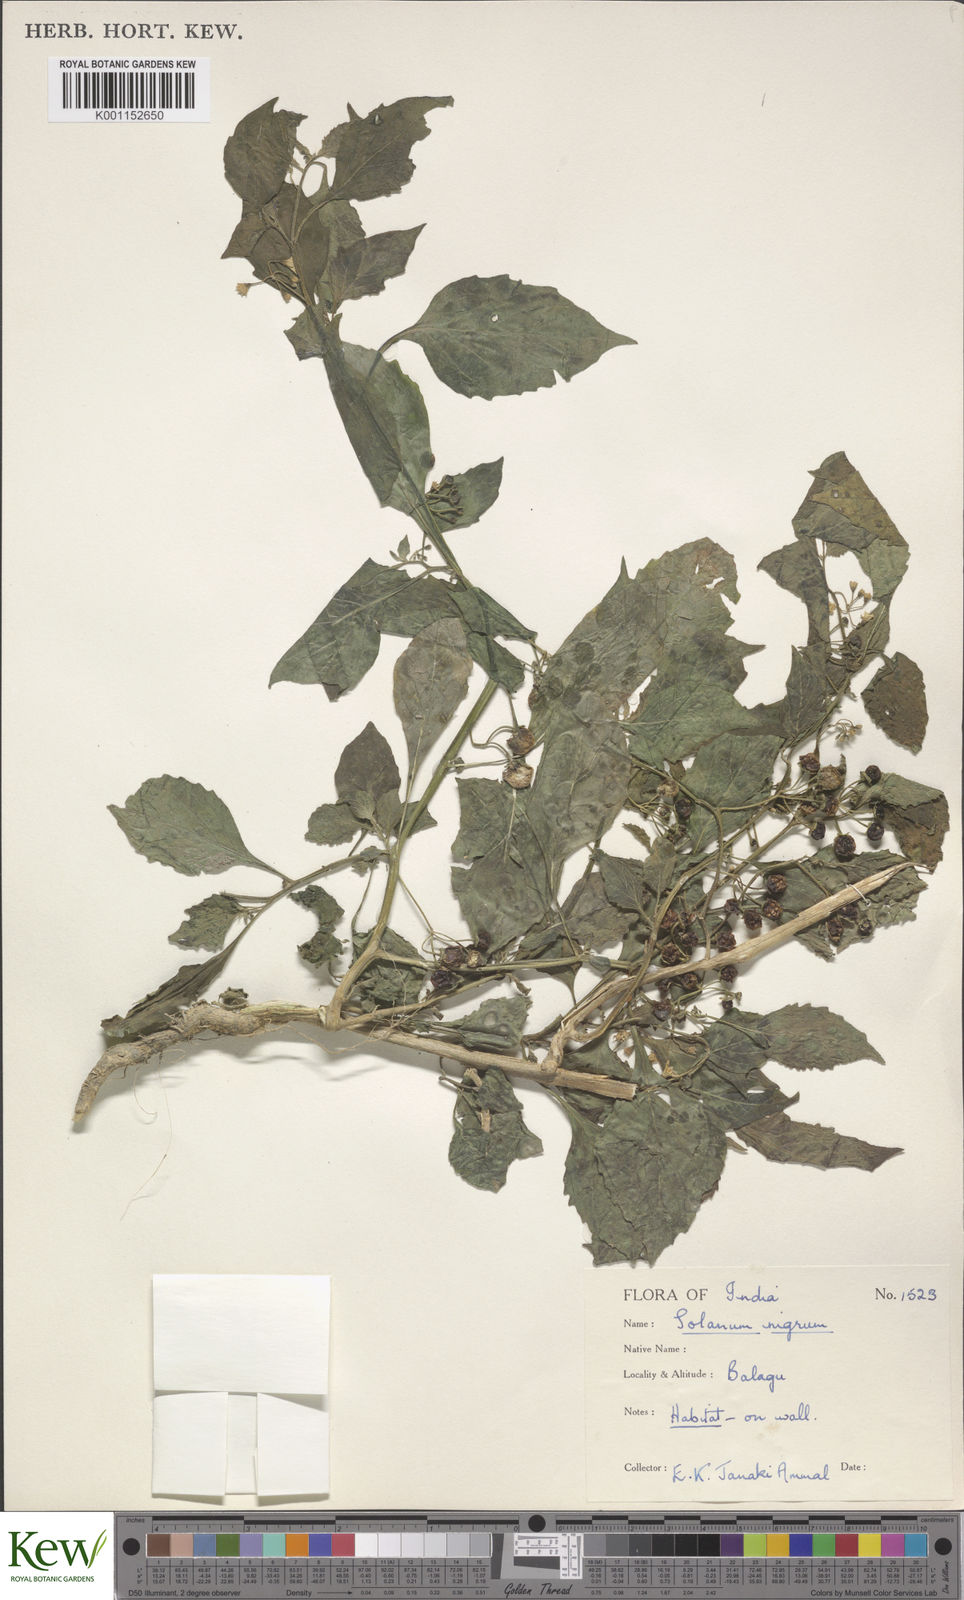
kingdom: Plantae
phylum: Tracheophyta
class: Magnoliopsida
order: Solanales
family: Solanaceae
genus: Solanum
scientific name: Solanum nigrum
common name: Black nightshade
